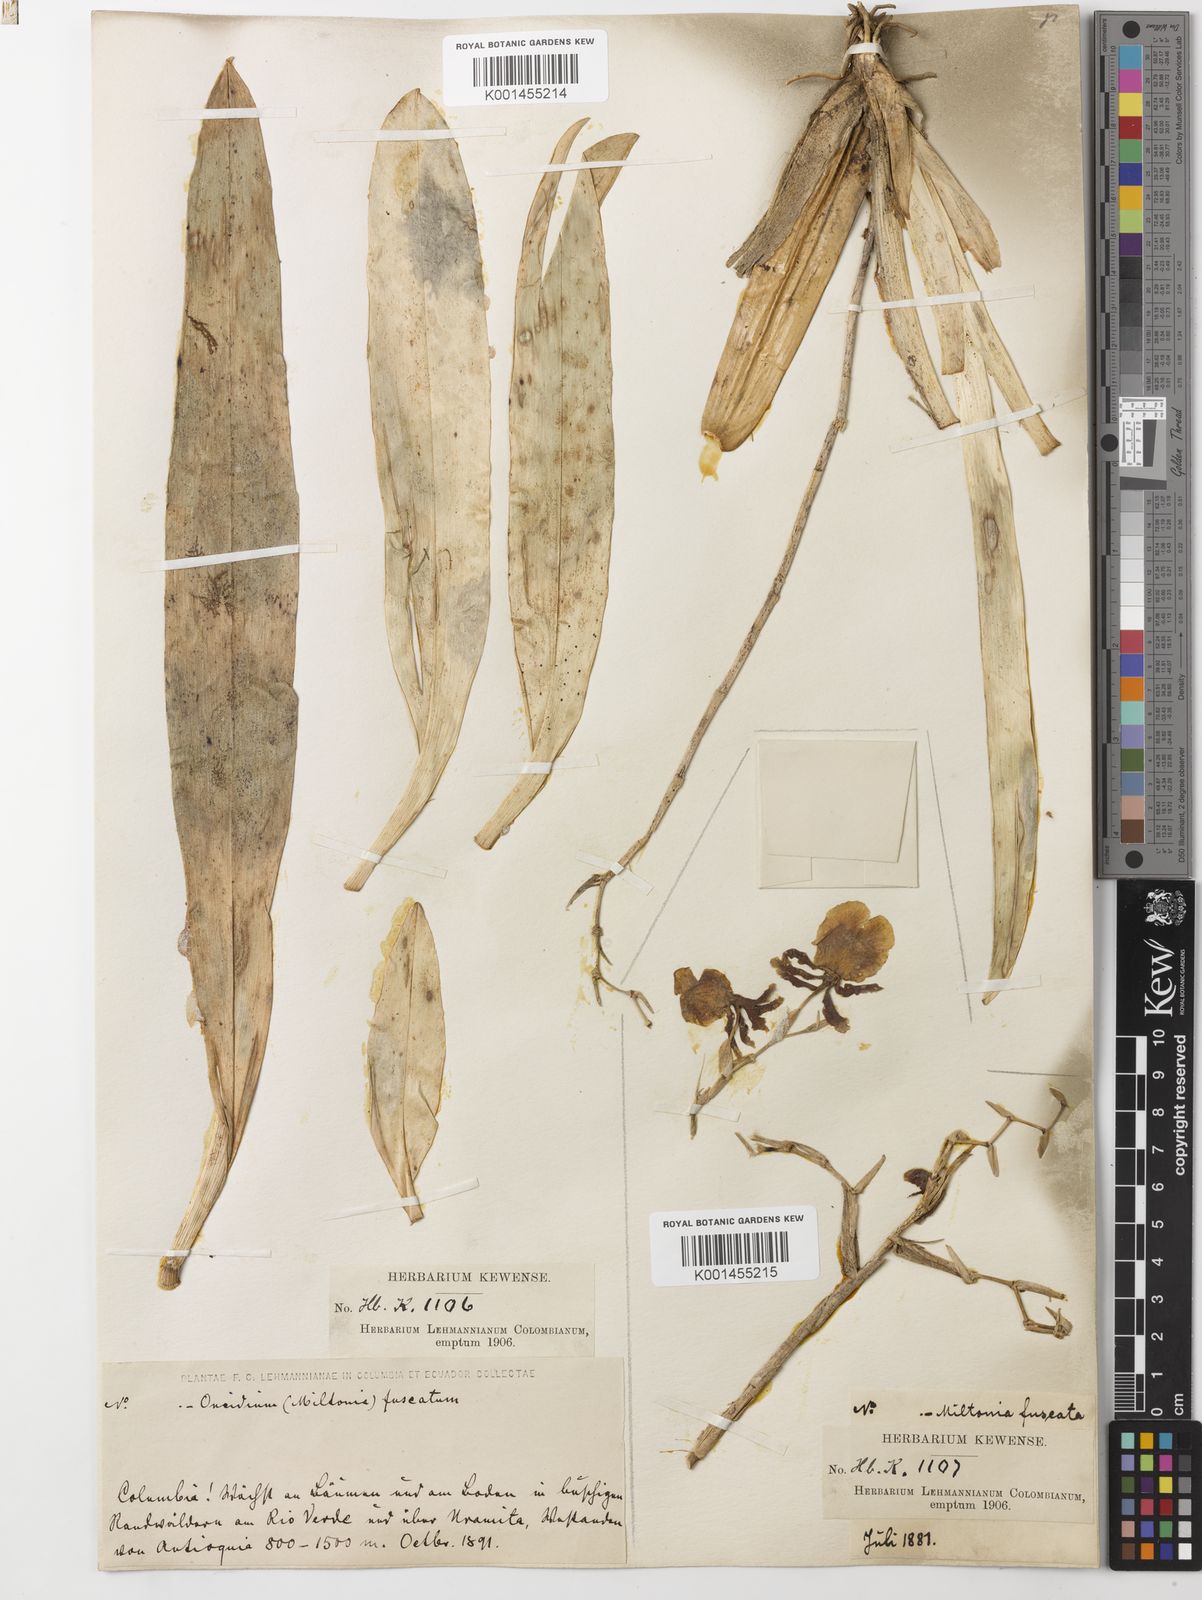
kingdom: Plantae
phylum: Tracheophyta
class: Liliopsida
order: Asparagales
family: Orchidaceae
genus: Oncidium
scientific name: Oncidium fuscatum
